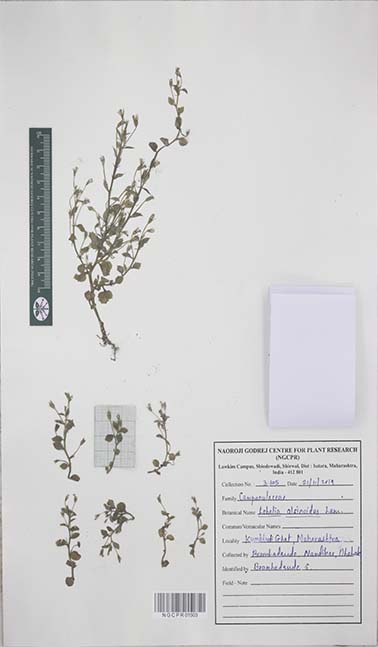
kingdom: Plantae
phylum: Tracheophyta
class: Magnoliopsida
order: Asterales
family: Campanulaceae
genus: Lobelia
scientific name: Lobelia alsinoides
